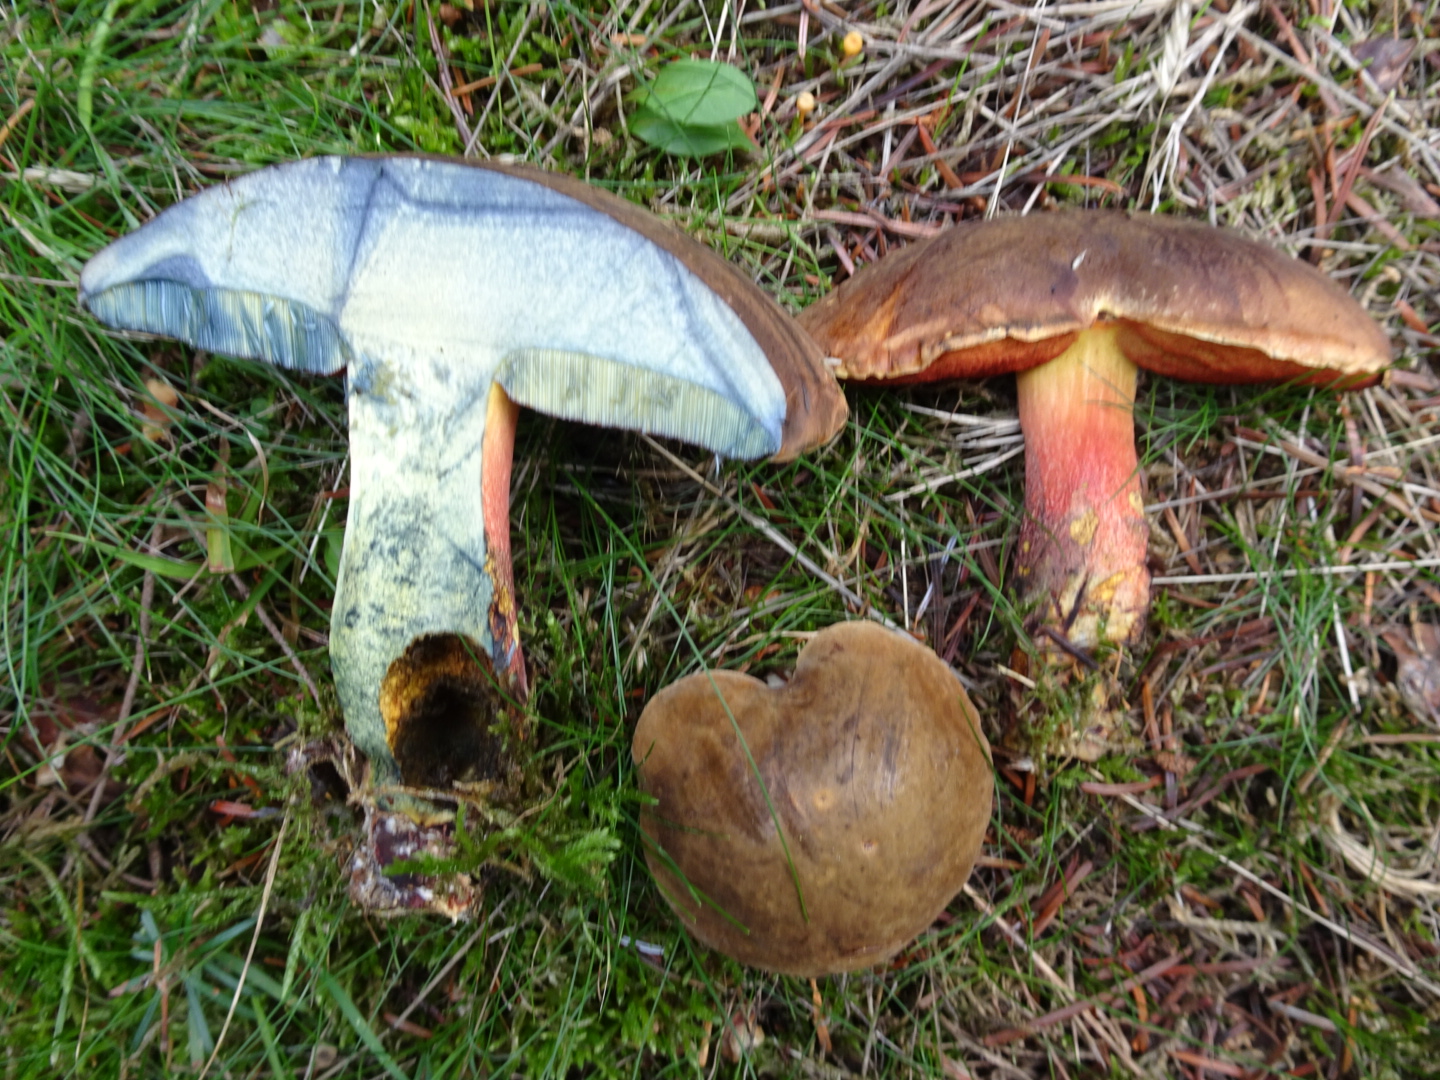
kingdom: Fungi
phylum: Basidiomycota
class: Agaricomycetes
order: Boletales
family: Boletaceae
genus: Neoboletus
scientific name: Neoboletus erythropus
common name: punktstokket indigorørhat
